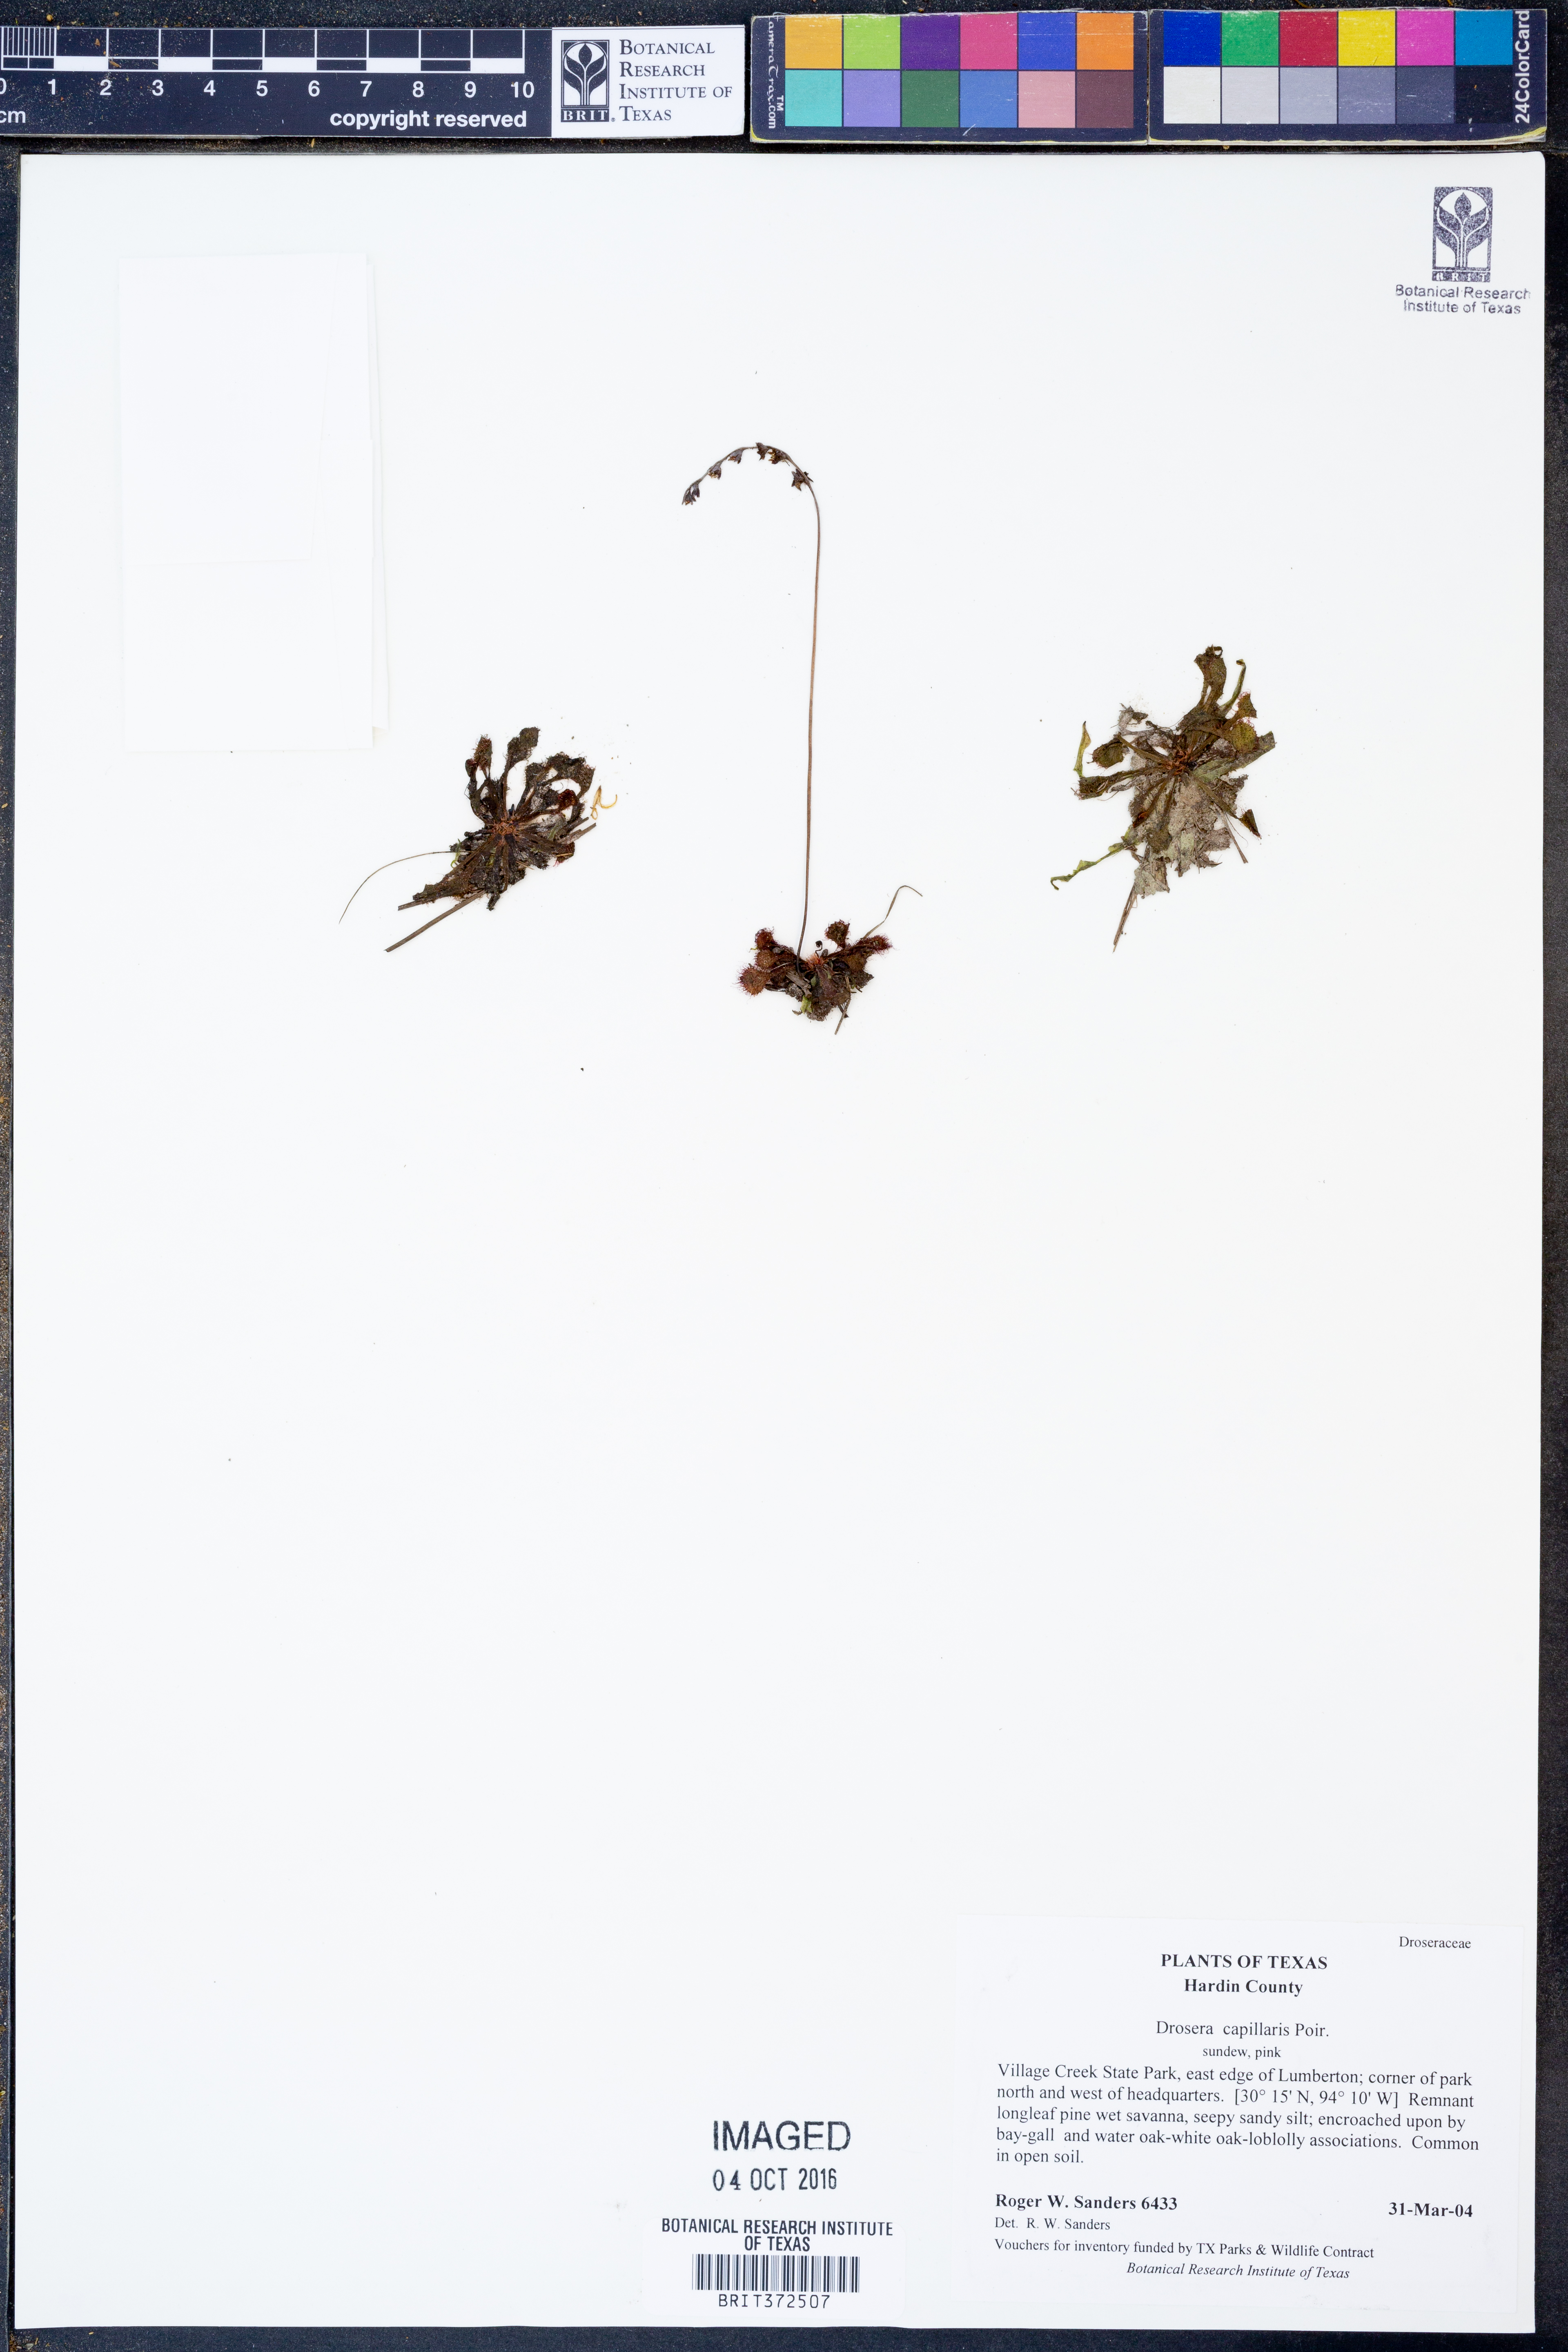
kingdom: Plantae
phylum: Tracheophyta
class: Magnoliopsida
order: Caryophyllales
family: Droseraceae
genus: Drosera
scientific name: Drosera capillaris
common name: Pink sundew
